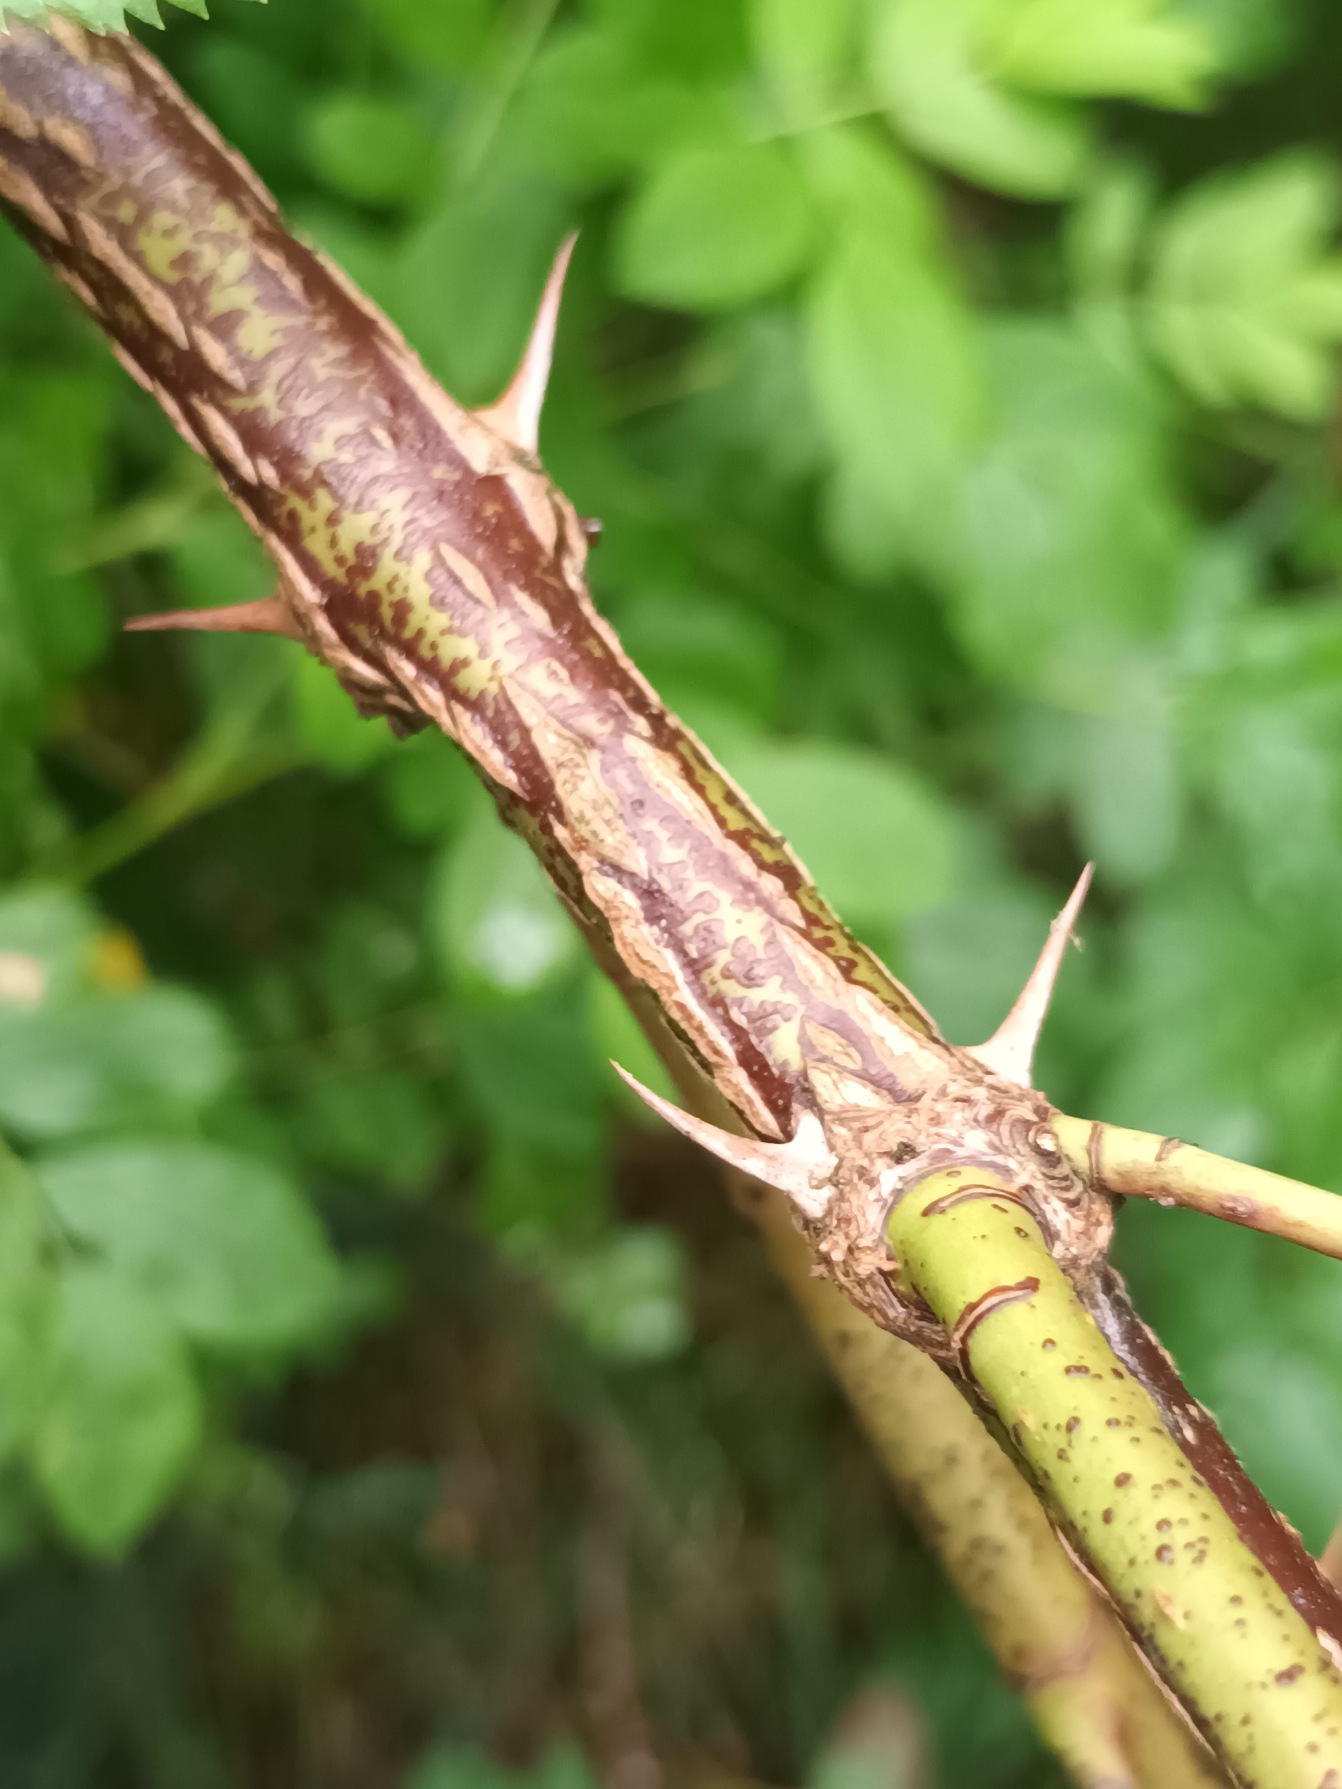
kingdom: Plantae
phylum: Tracheophyta
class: Magnoliopsida
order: Rosales
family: Rosaceae
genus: Rosa
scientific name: Rosa carolina
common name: Glansbladet rose
